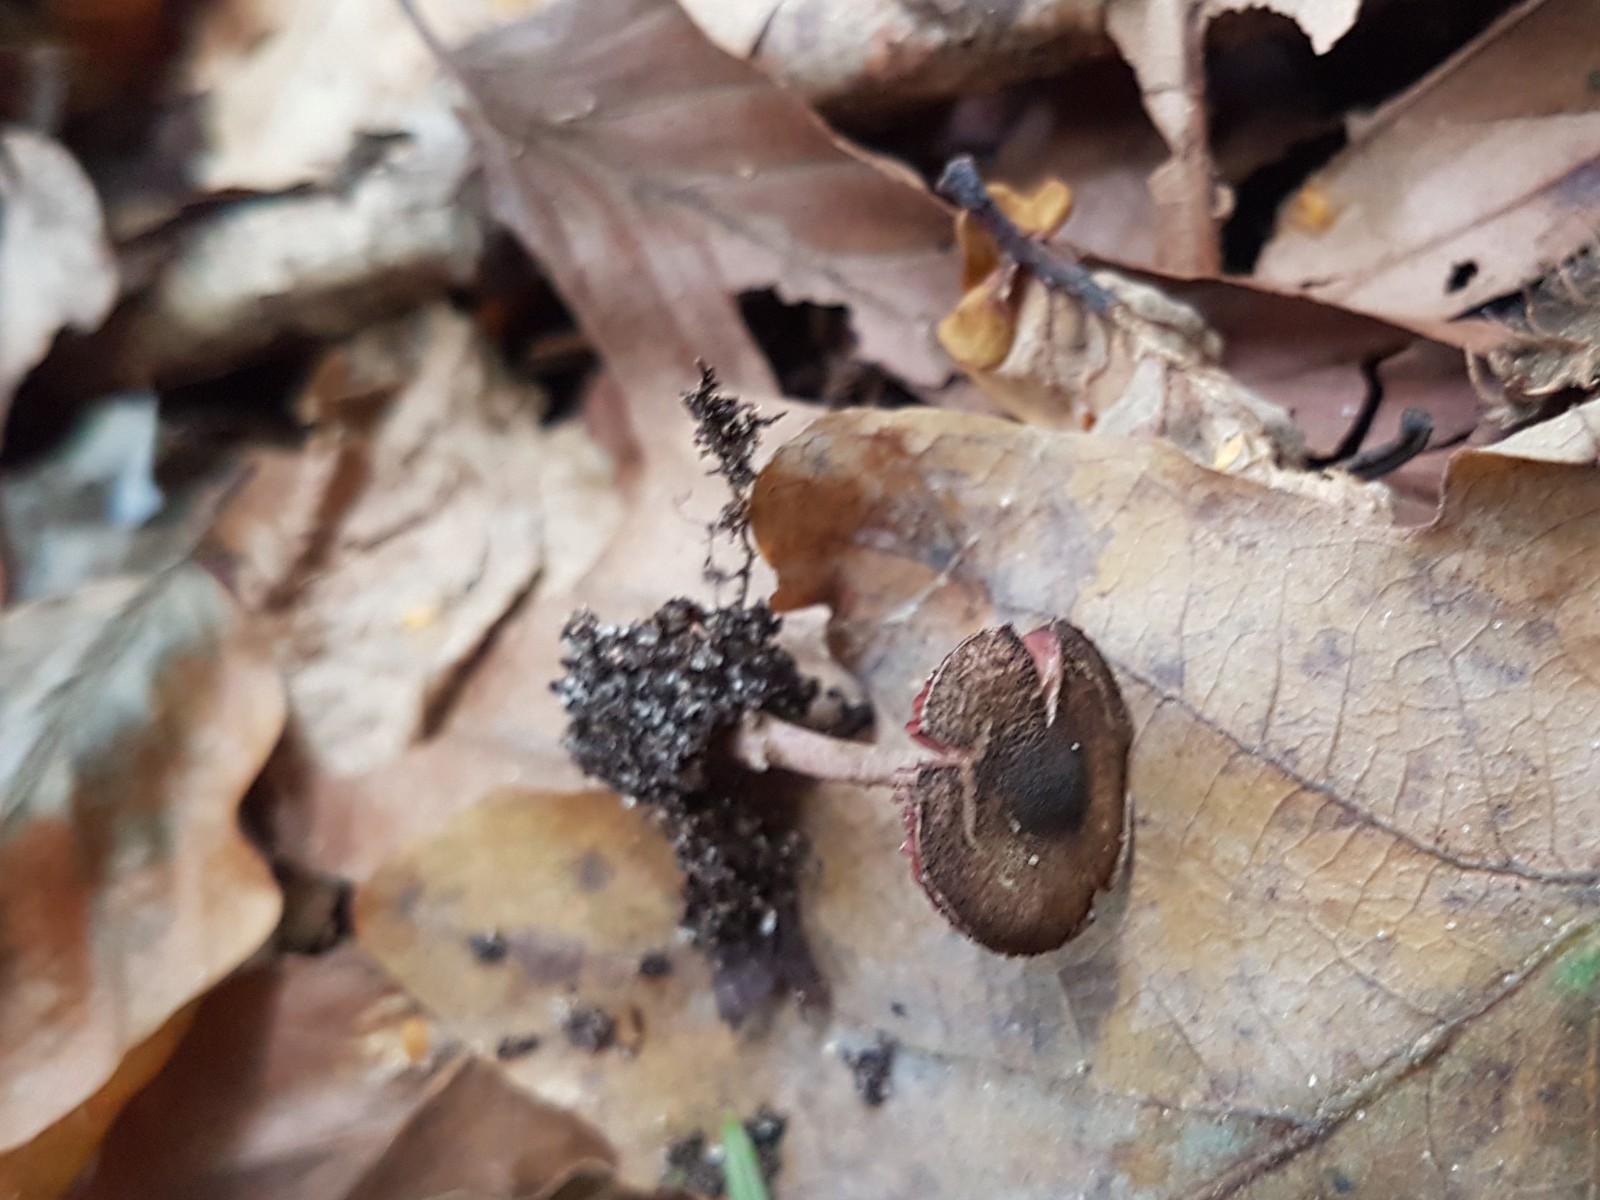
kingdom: Fungi
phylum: Basidiomycota
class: Agaricomycetes
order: Agaricales
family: Agaricaceae
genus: Melanophyllum
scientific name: Melanophyllum haematospermum
